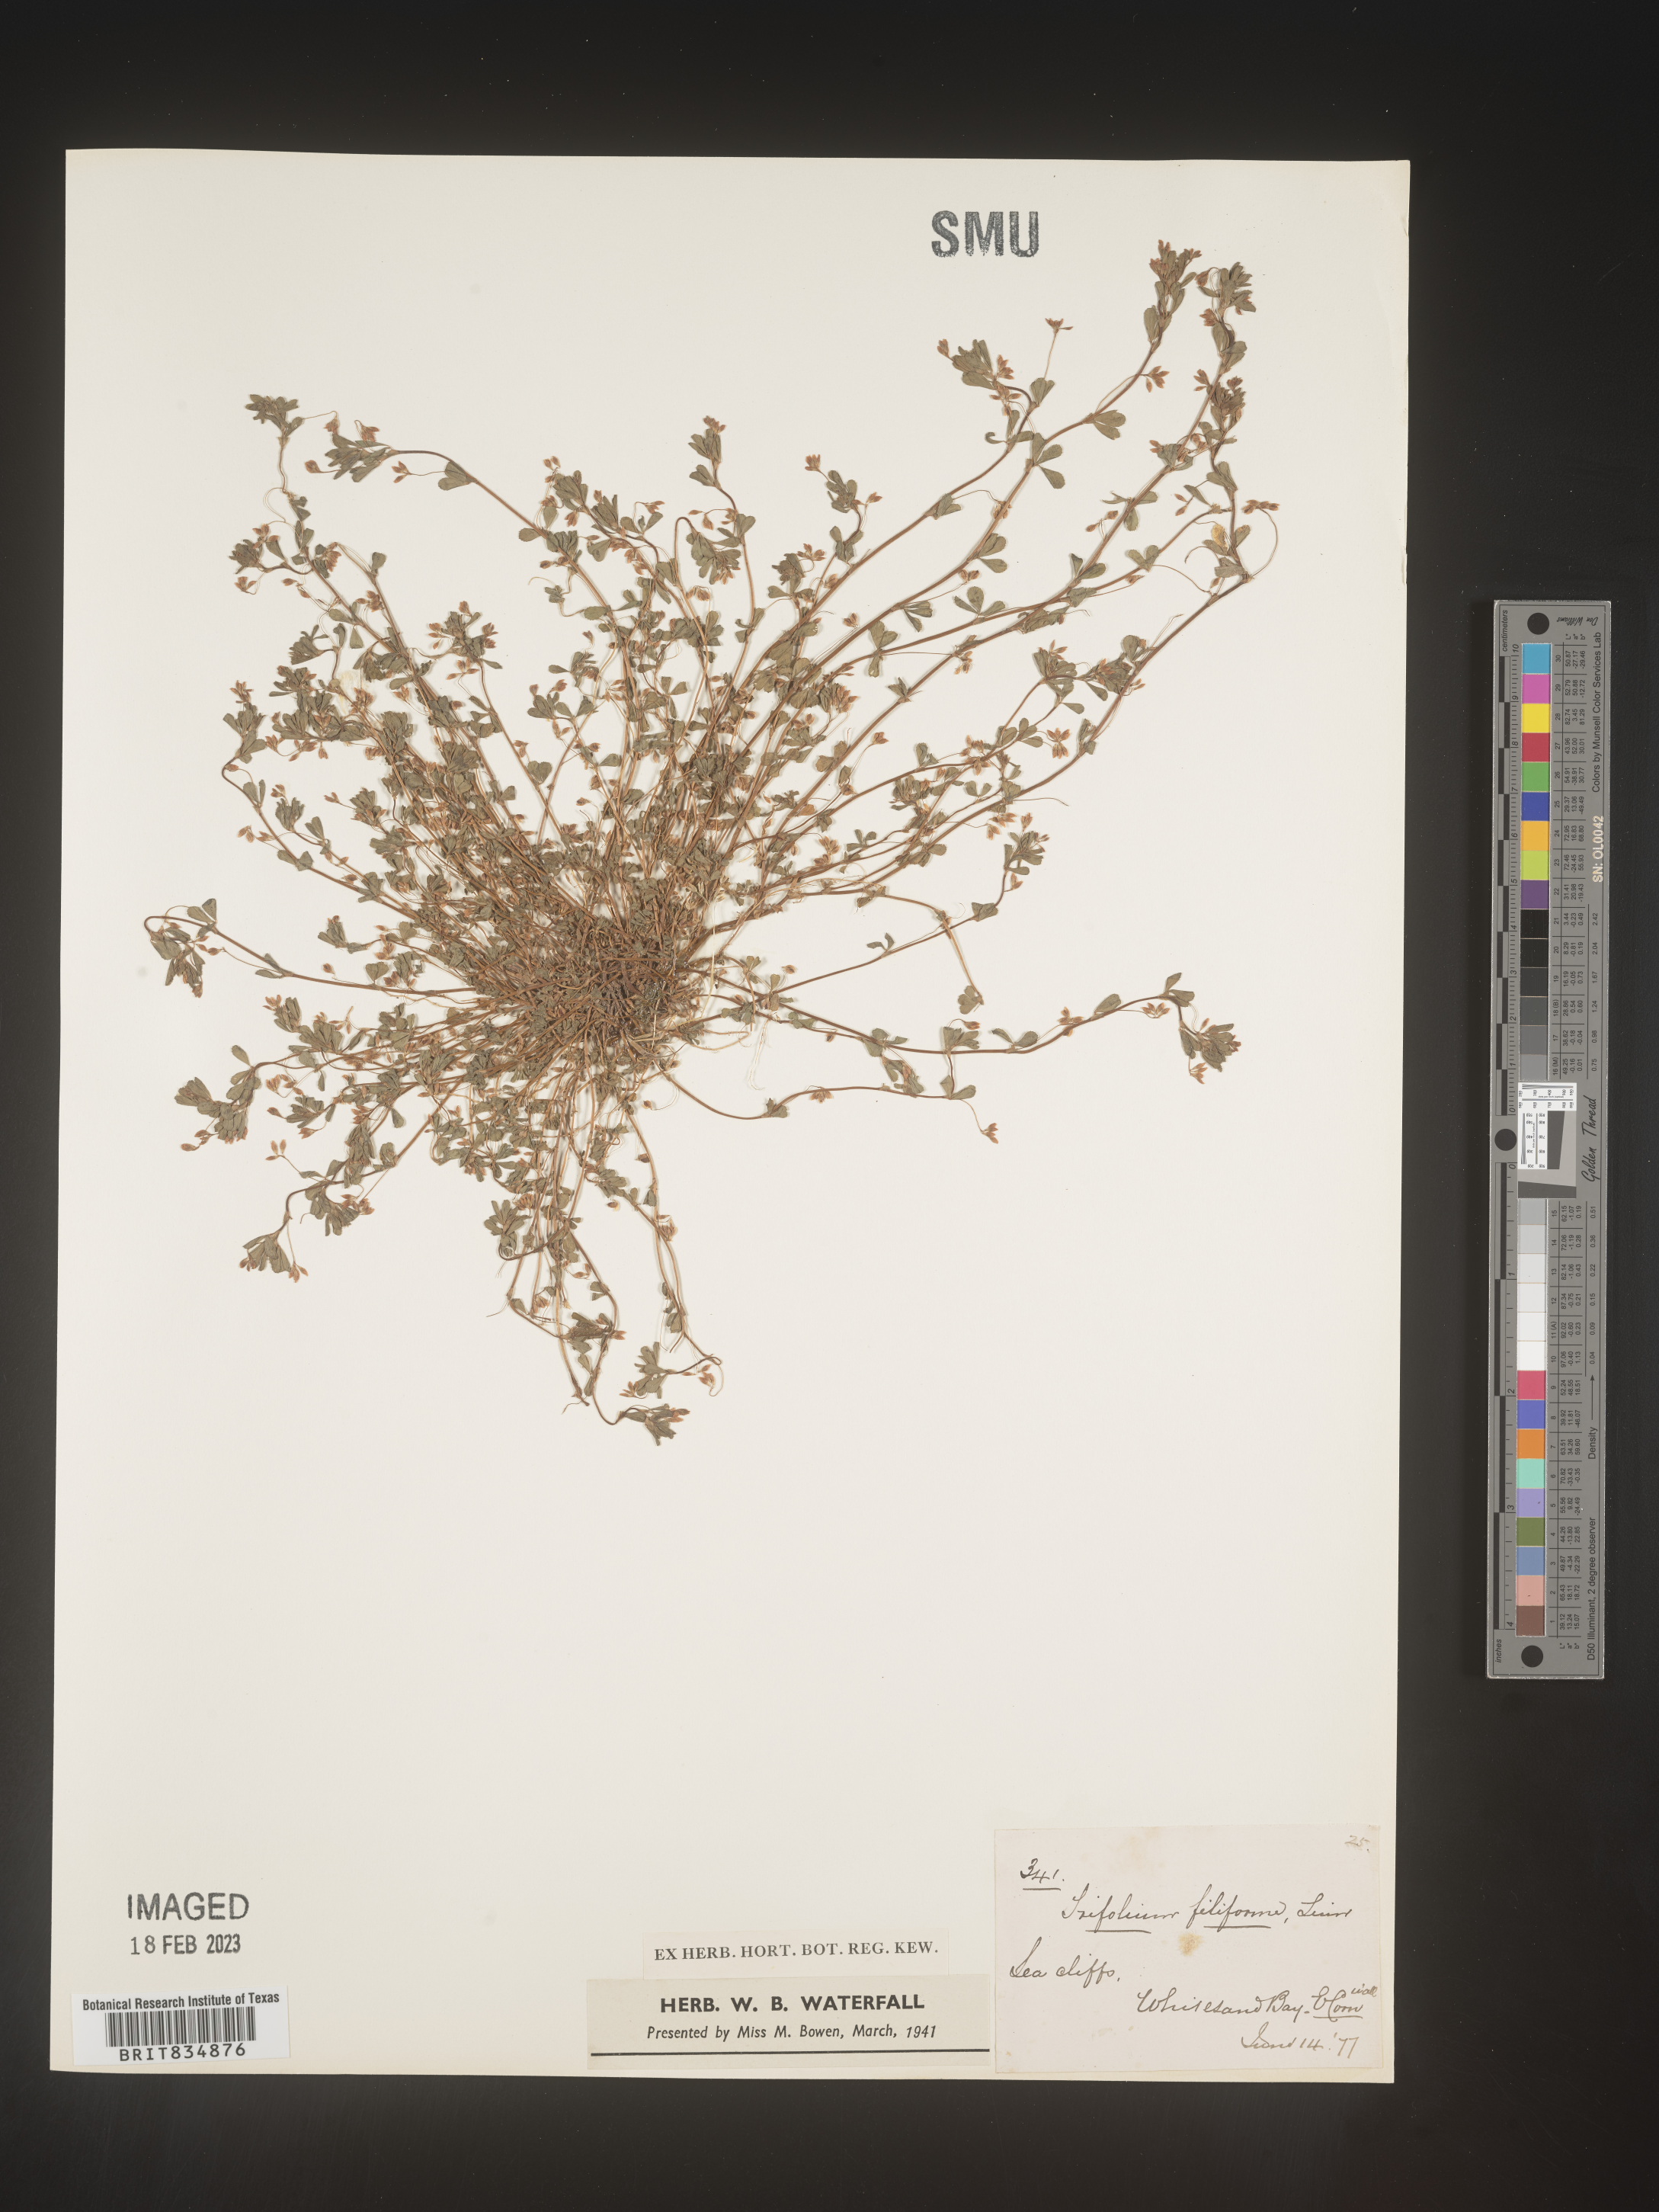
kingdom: Plantae
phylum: Tracheophyta
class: Magnoliopsida
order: Fabales
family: Fabaceae
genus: Trifolium
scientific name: Trifolium
